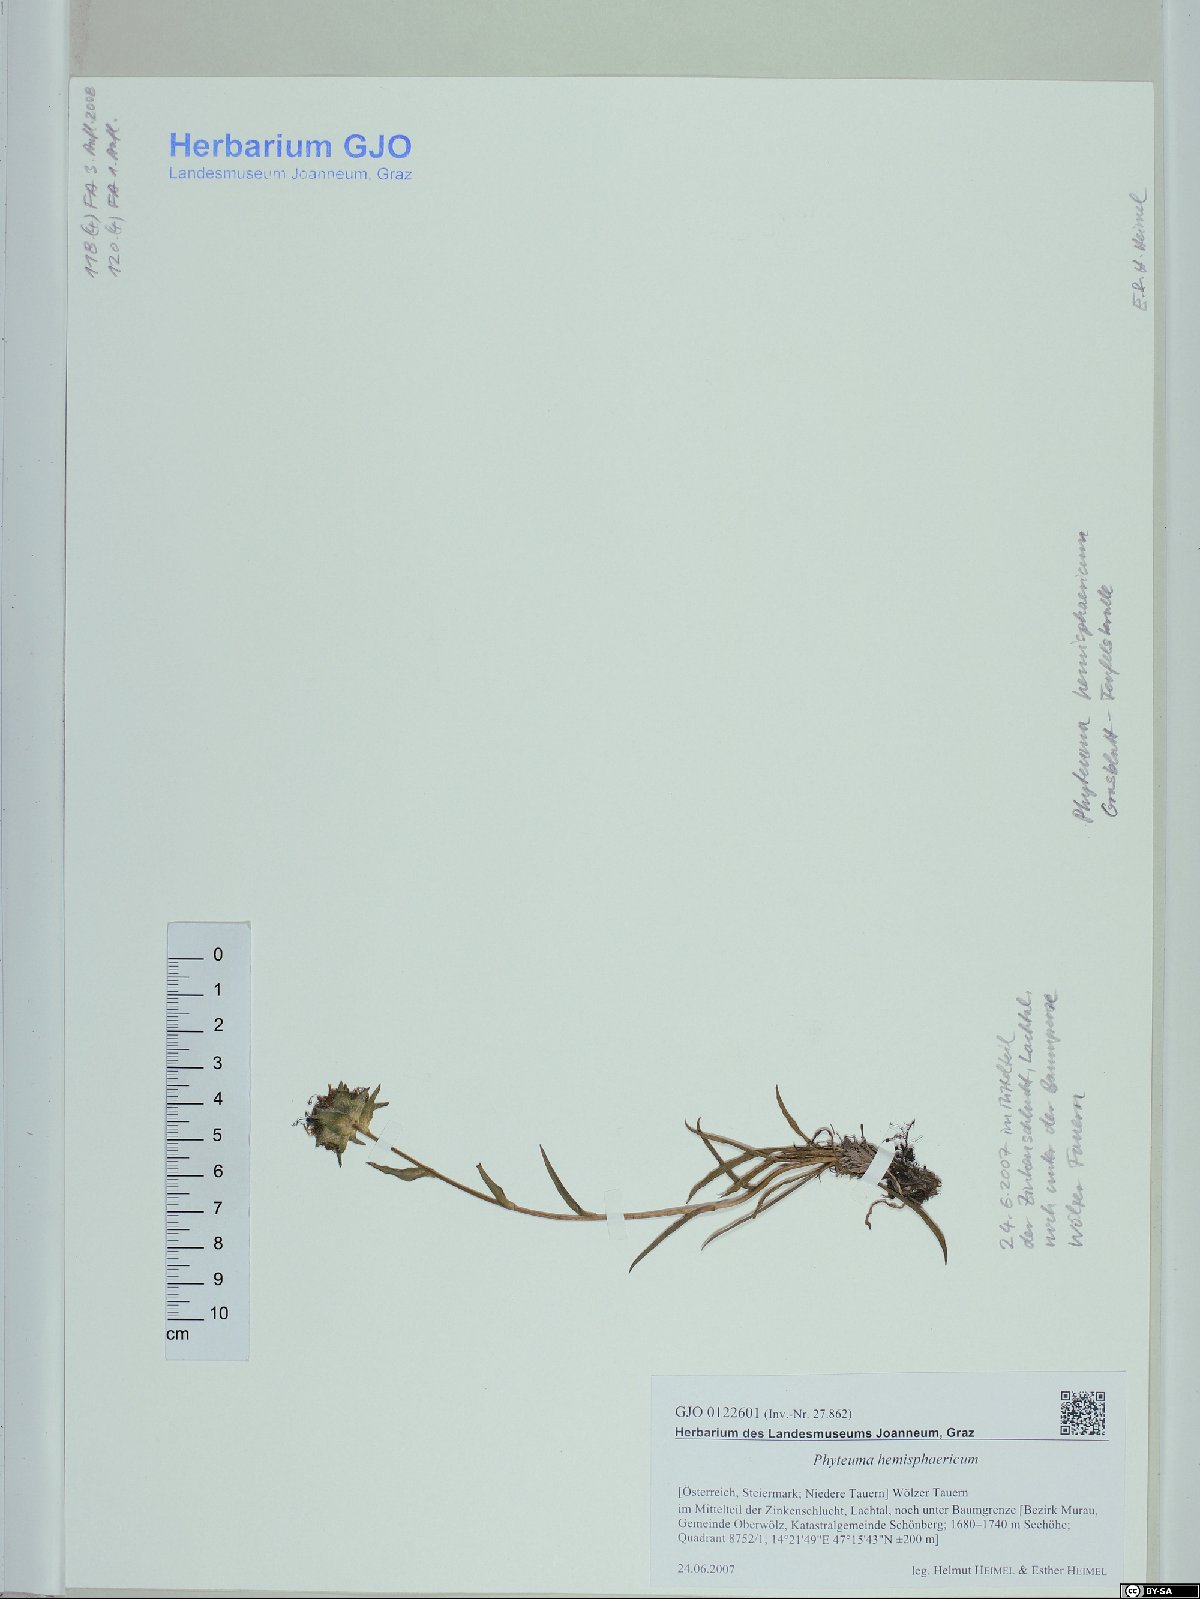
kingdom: Plantae
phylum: Tracheophyta
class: Magnoliopsida
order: Asterales
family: Campanulaceae
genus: Phyteuma
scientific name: Phyteuma hemisphaericum
